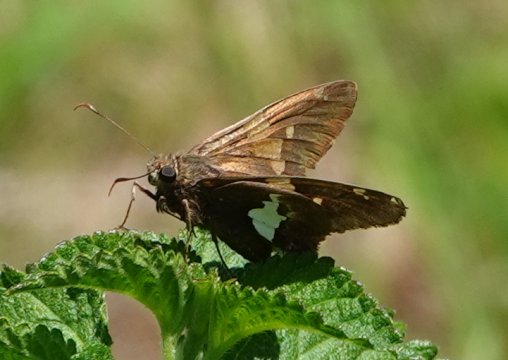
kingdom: Animalia
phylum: Arthropoda
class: Insecta
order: Lepidoptera
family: Hesperiidae
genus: Epargyreus
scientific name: Epargyreus clarus
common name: Silver-spotted Skipper
